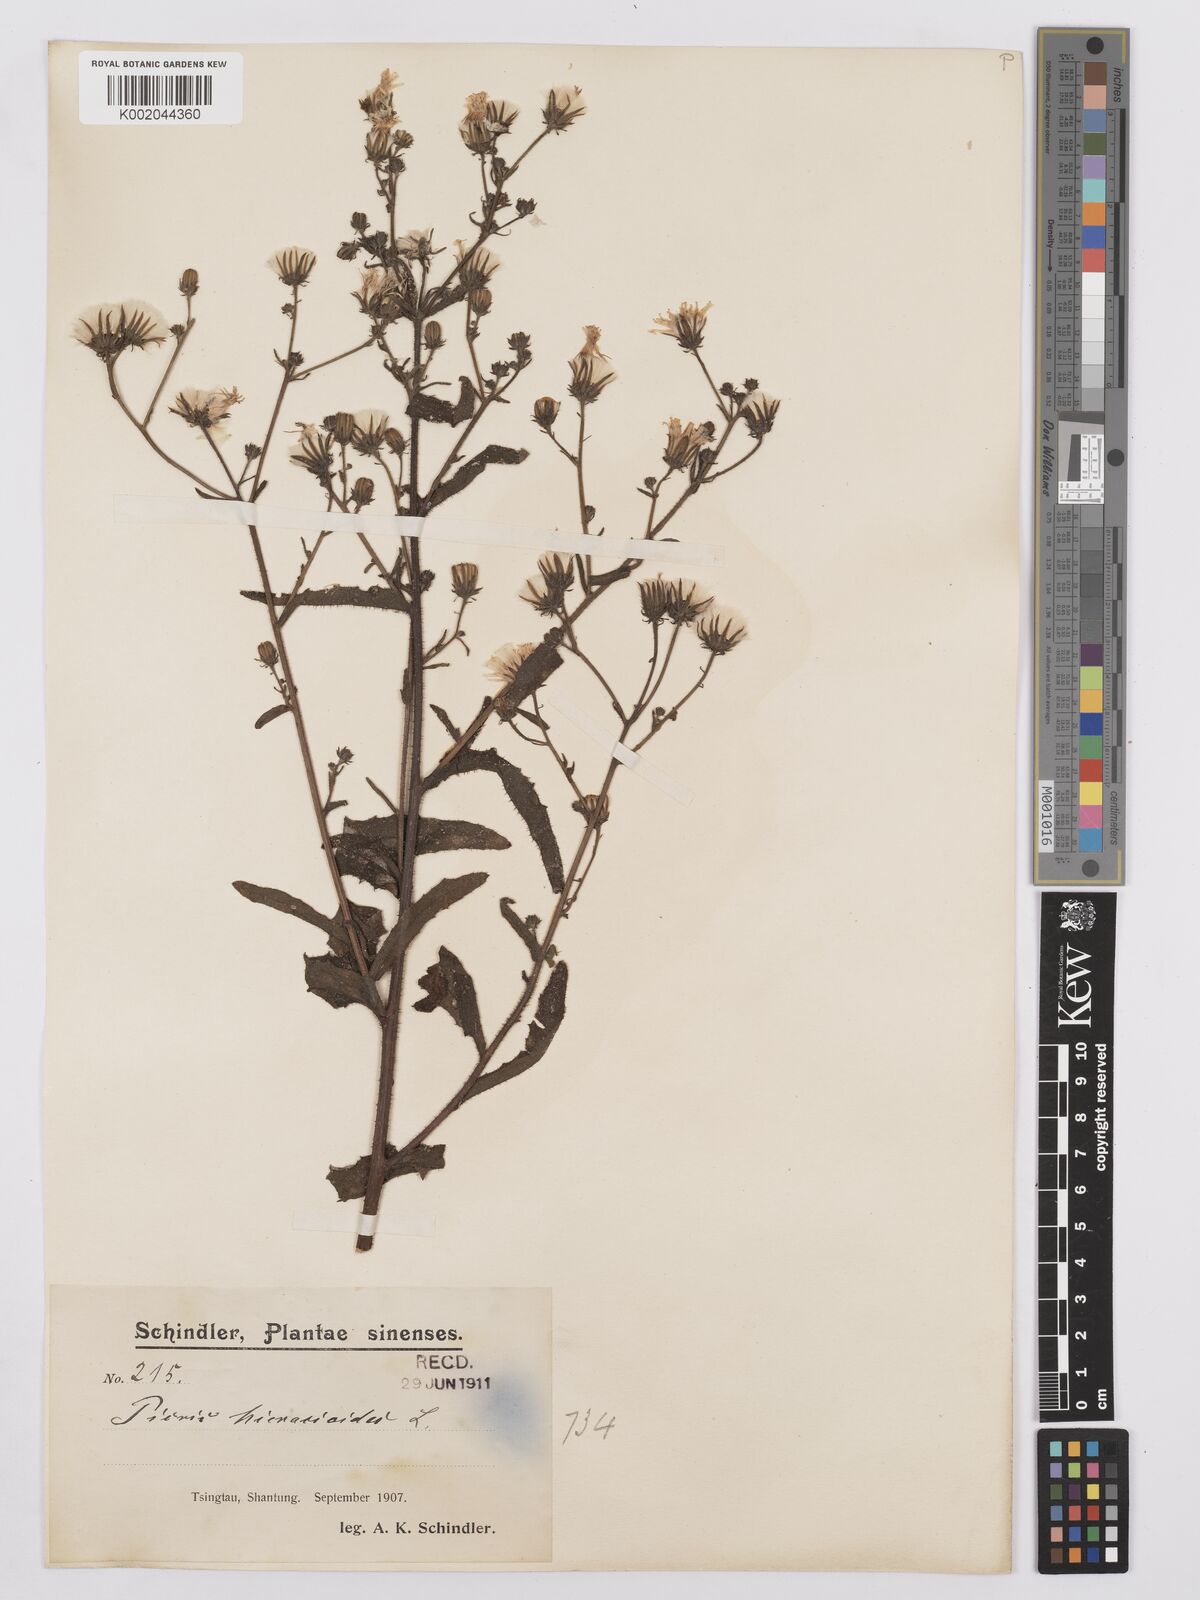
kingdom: Plantae
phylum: Tracheophyta
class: Magnoliopsida
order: Asterales
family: Asteraceae
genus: Picris
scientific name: Picris hieracioides
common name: Hawkweed oxtongue
